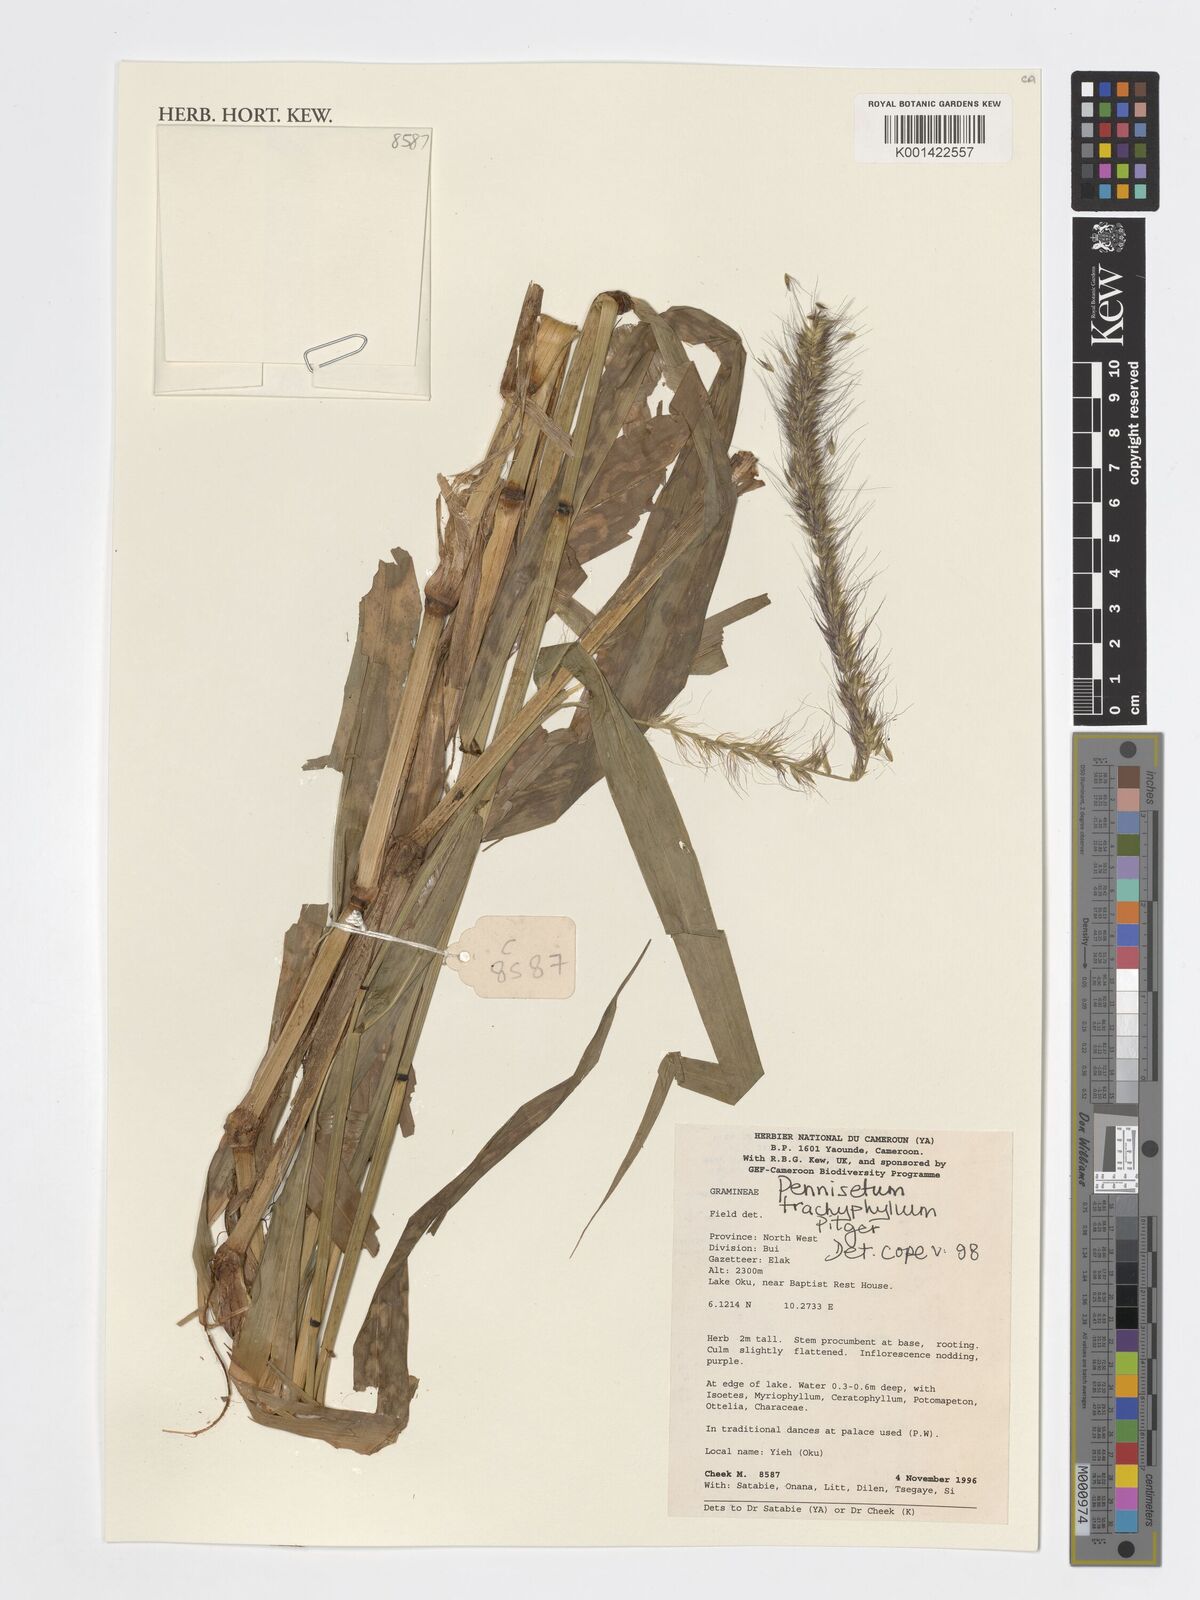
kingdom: Plantae
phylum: Tracheophyta
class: Liliopsida
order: Poales
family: Poaceae
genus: Cenchrus
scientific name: Cenchrus trachyphyllus
